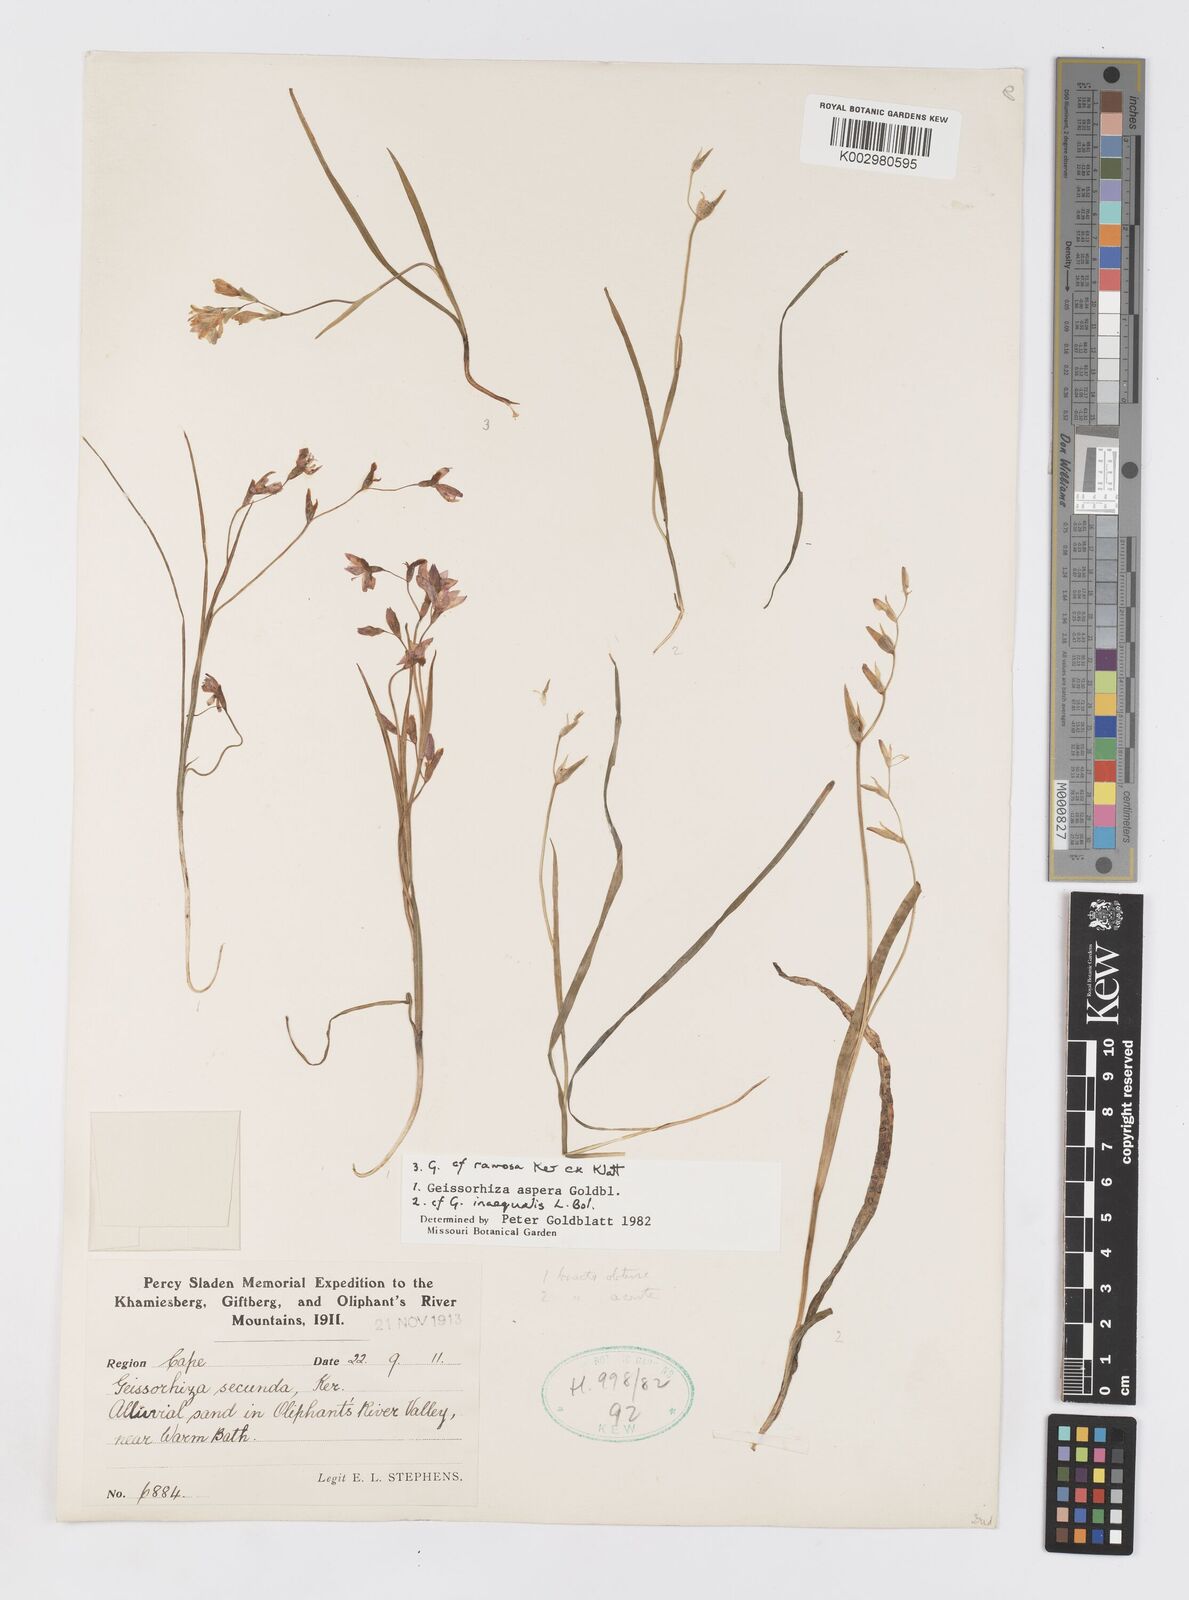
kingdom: Plantae
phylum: Tracheophyta
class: Liliopsida
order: Asparagales
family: Iridaceae
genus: Geissorhiza
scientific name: Geissorhiza aspera
